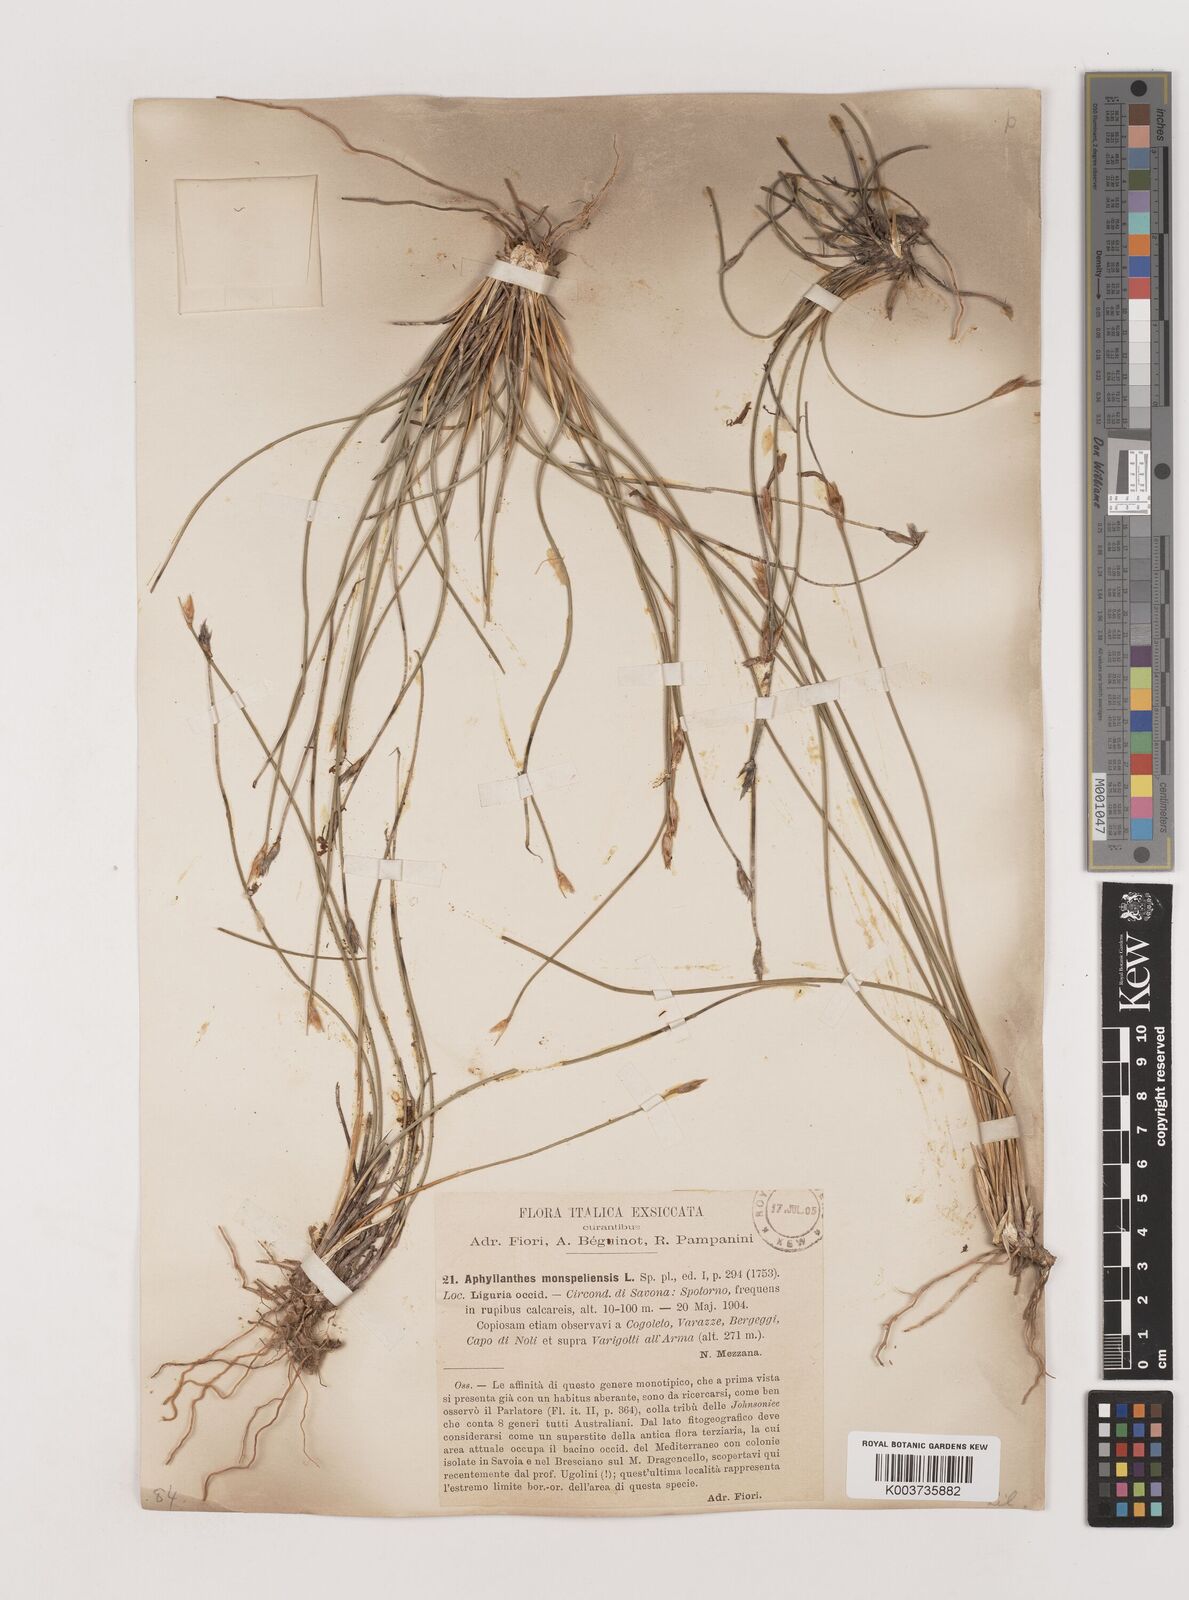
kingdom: Plantae
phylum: Tracheophyta
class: Liliopsida
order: Asparagales
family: Asparagaceae
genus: Aphyllanthes
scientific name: Aphyllanthes monspeliensis
